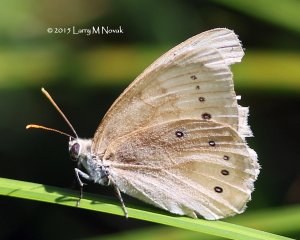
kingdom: Animalia
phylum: Arthropoda
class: Insecta
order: Lepidoptera
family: Nymphalidae
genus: Lethe
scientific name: Lethe eurydice
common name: Eyed Brown
